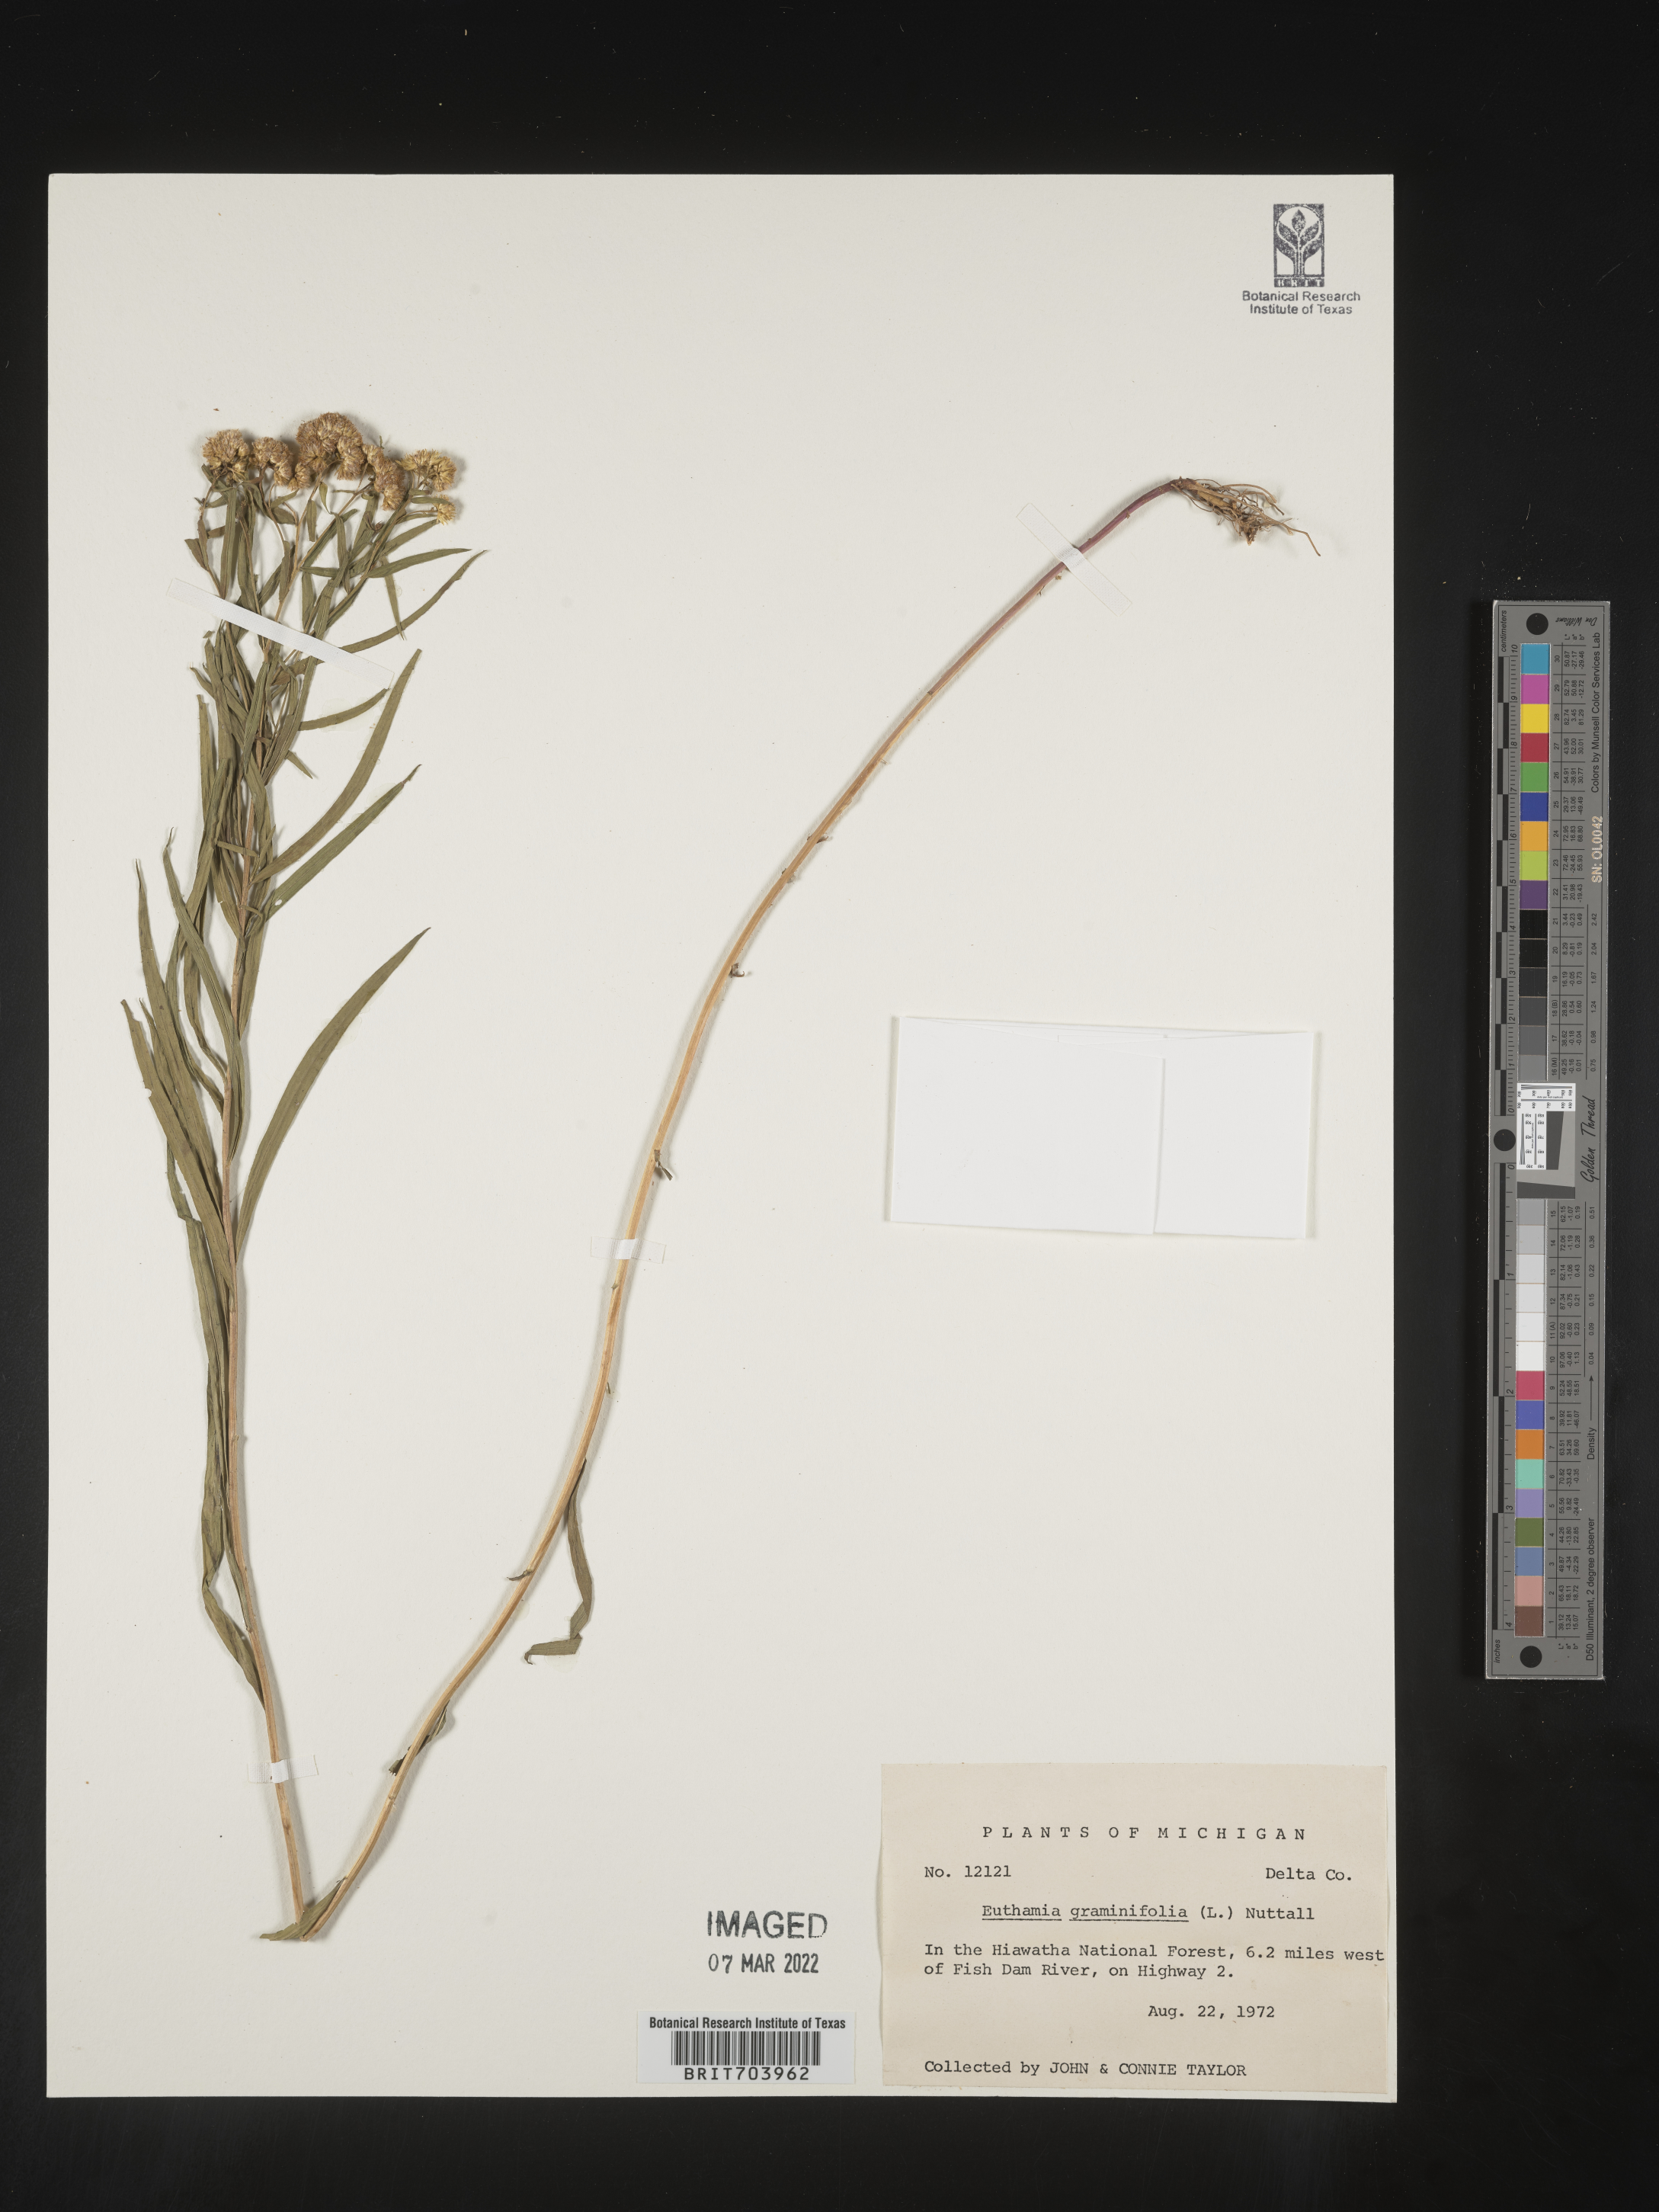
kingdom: Plantae
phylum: Tracheophyta
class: Magnoliopsida
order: Asterales
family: Asteraceae
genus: Euthamia
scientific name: Euthamia graminifolia
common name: Common goldentop
